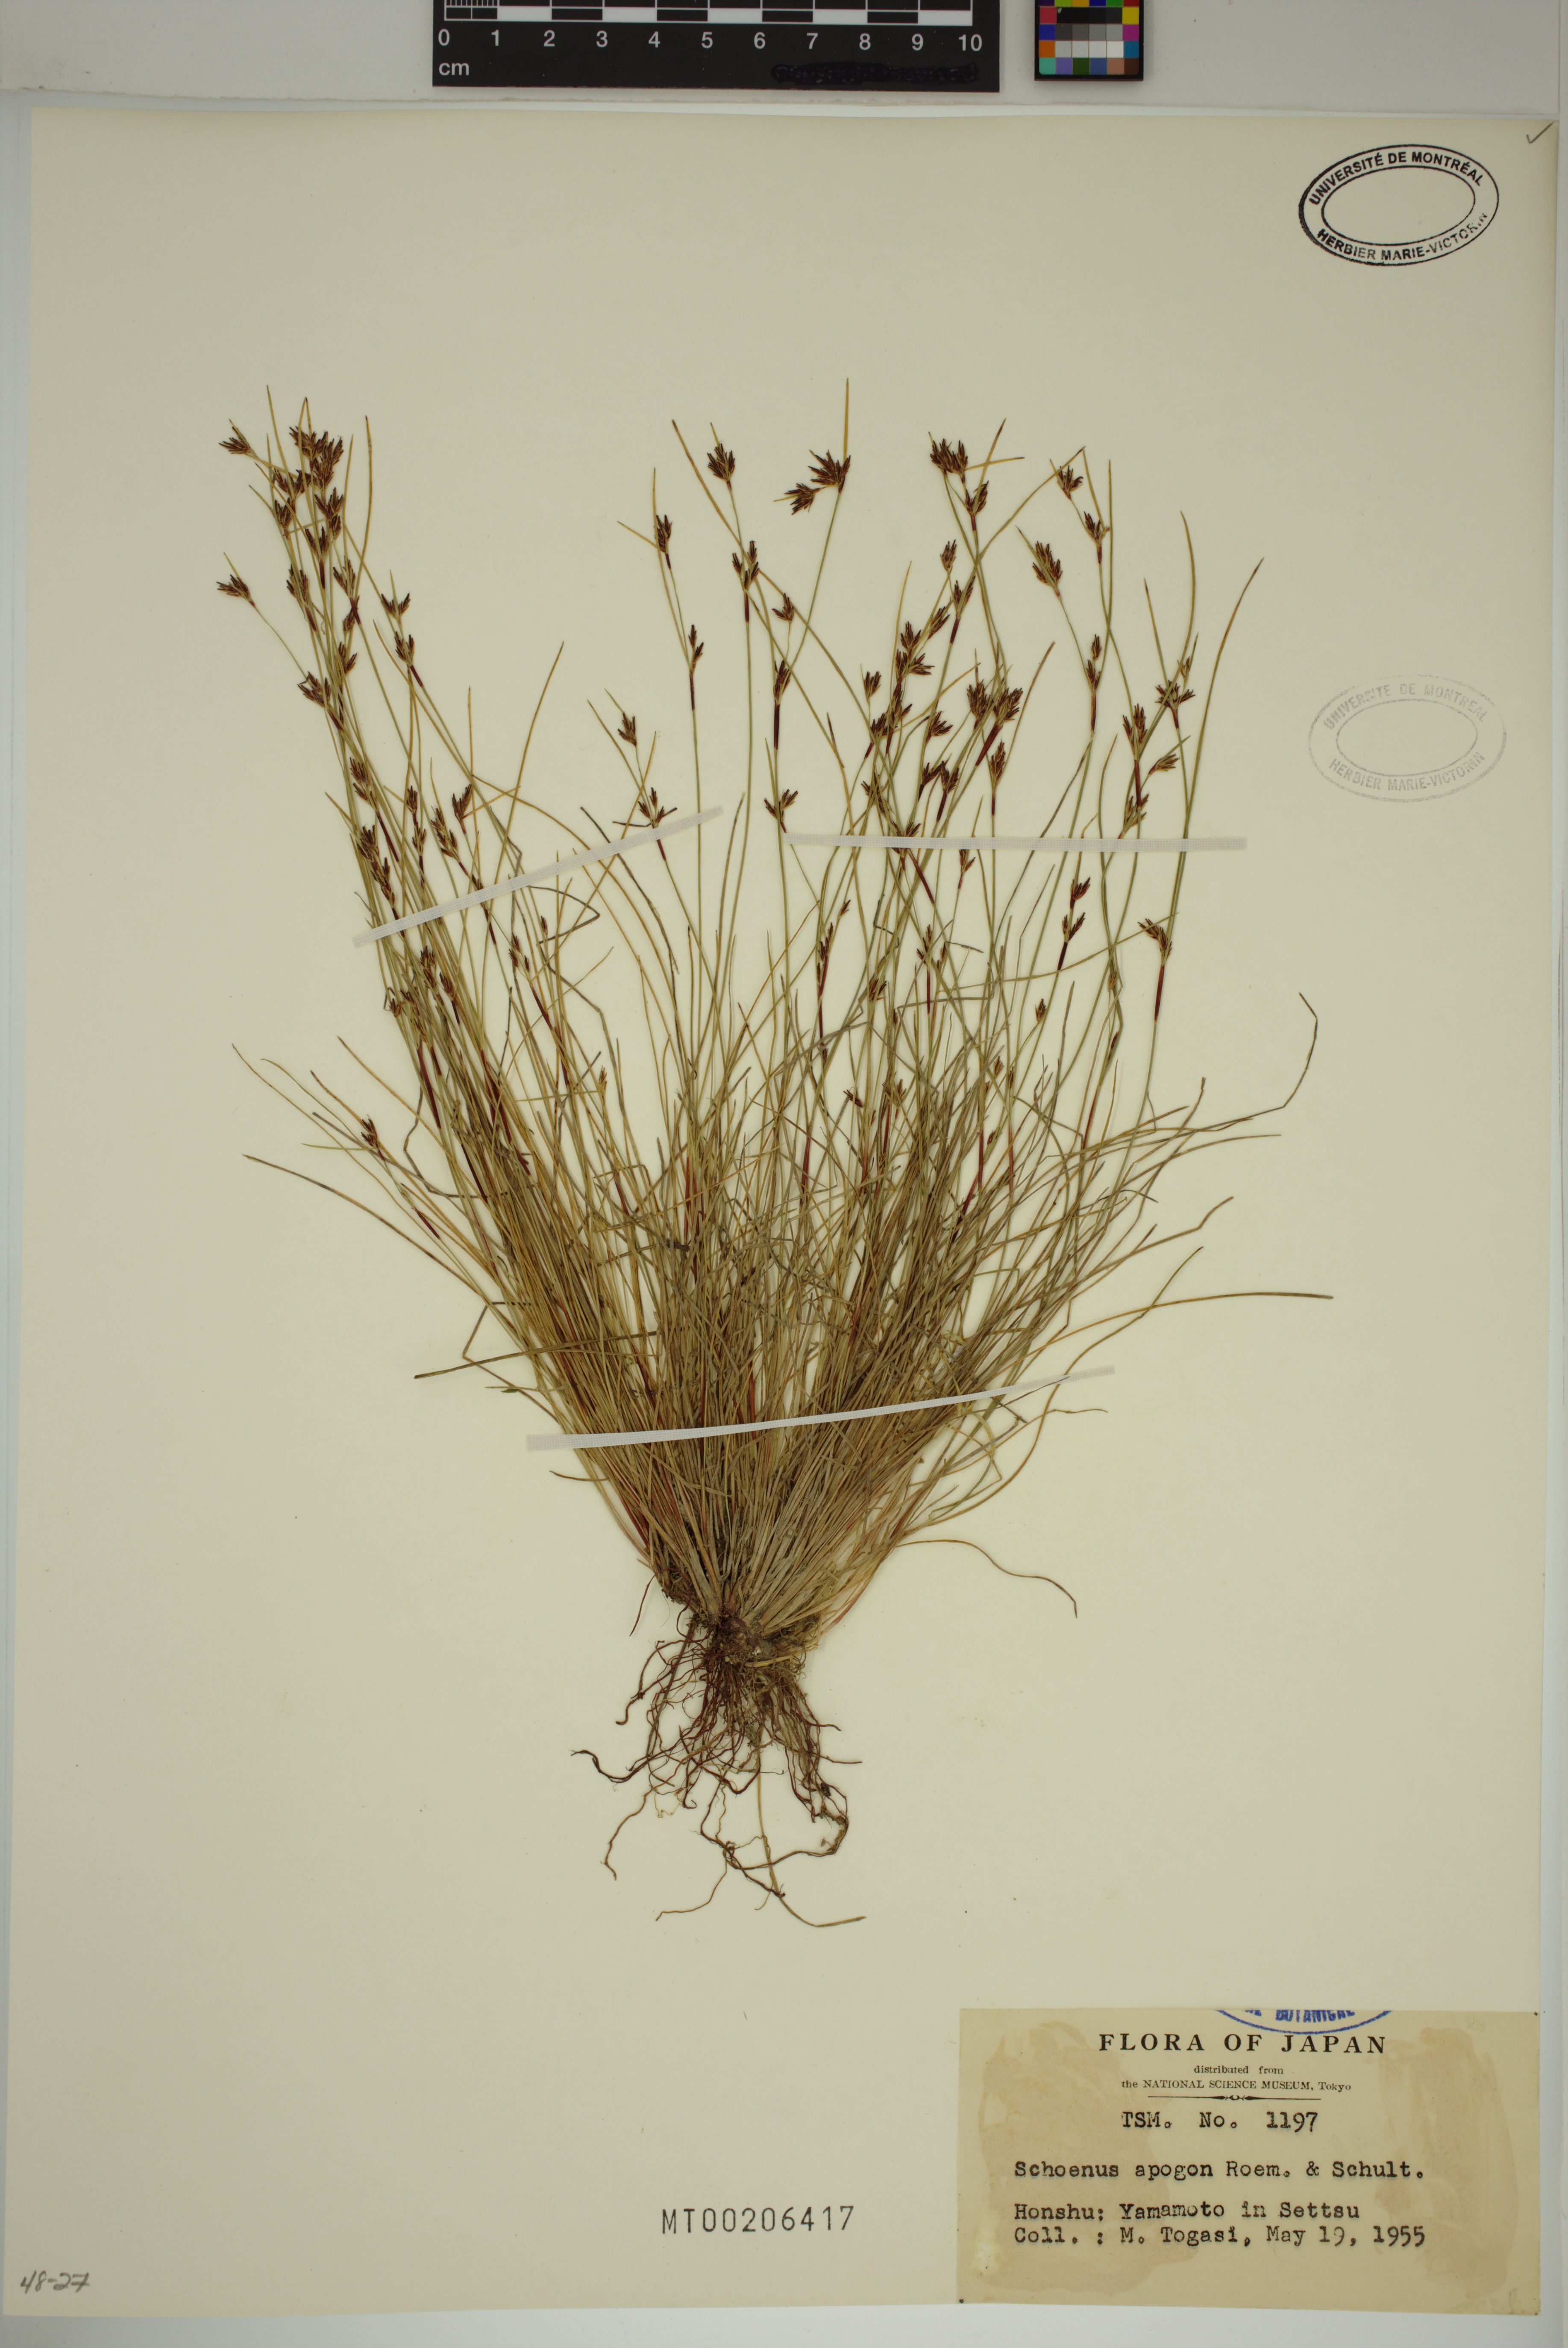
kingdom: Plantae
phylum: Tracheophyta
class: Liliopsida
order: Poales
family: Cyperaceae
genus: Schoenus
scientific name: Schoenus apogon
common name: Smooth bogrush
